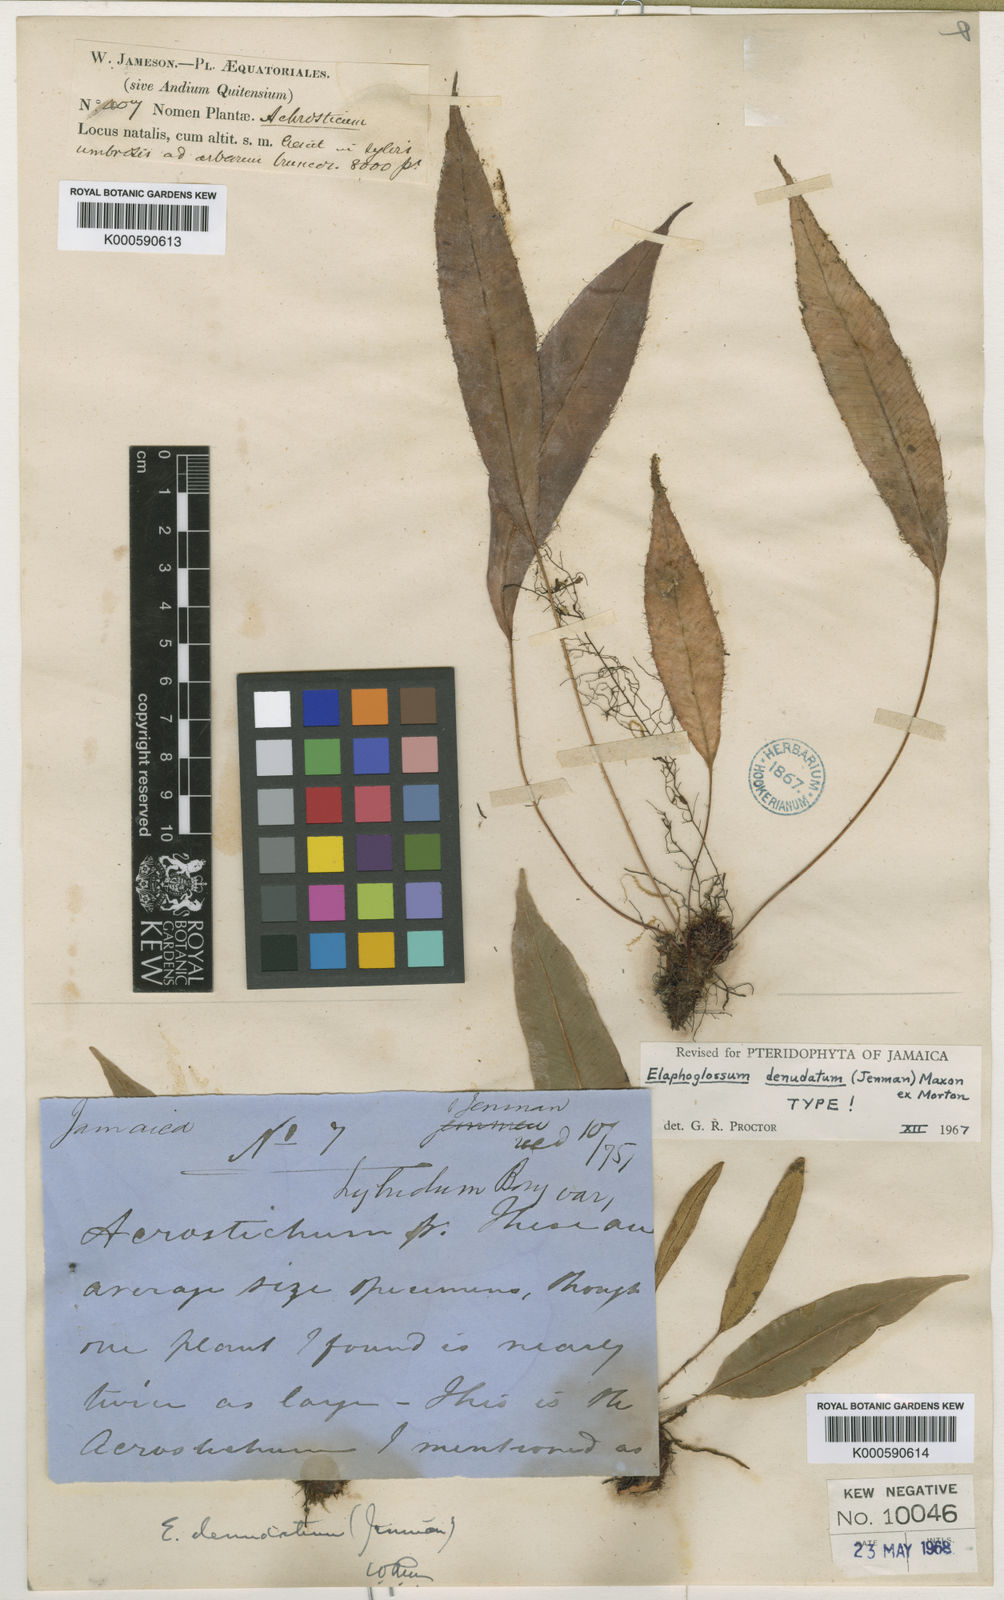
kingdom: Plantae
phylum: Tracheophyta
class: Polypodiopsida
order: Polypodiales
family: Dryopteridaceae
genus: Elaphoglossum
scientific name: Elaphoglossum denudatum
